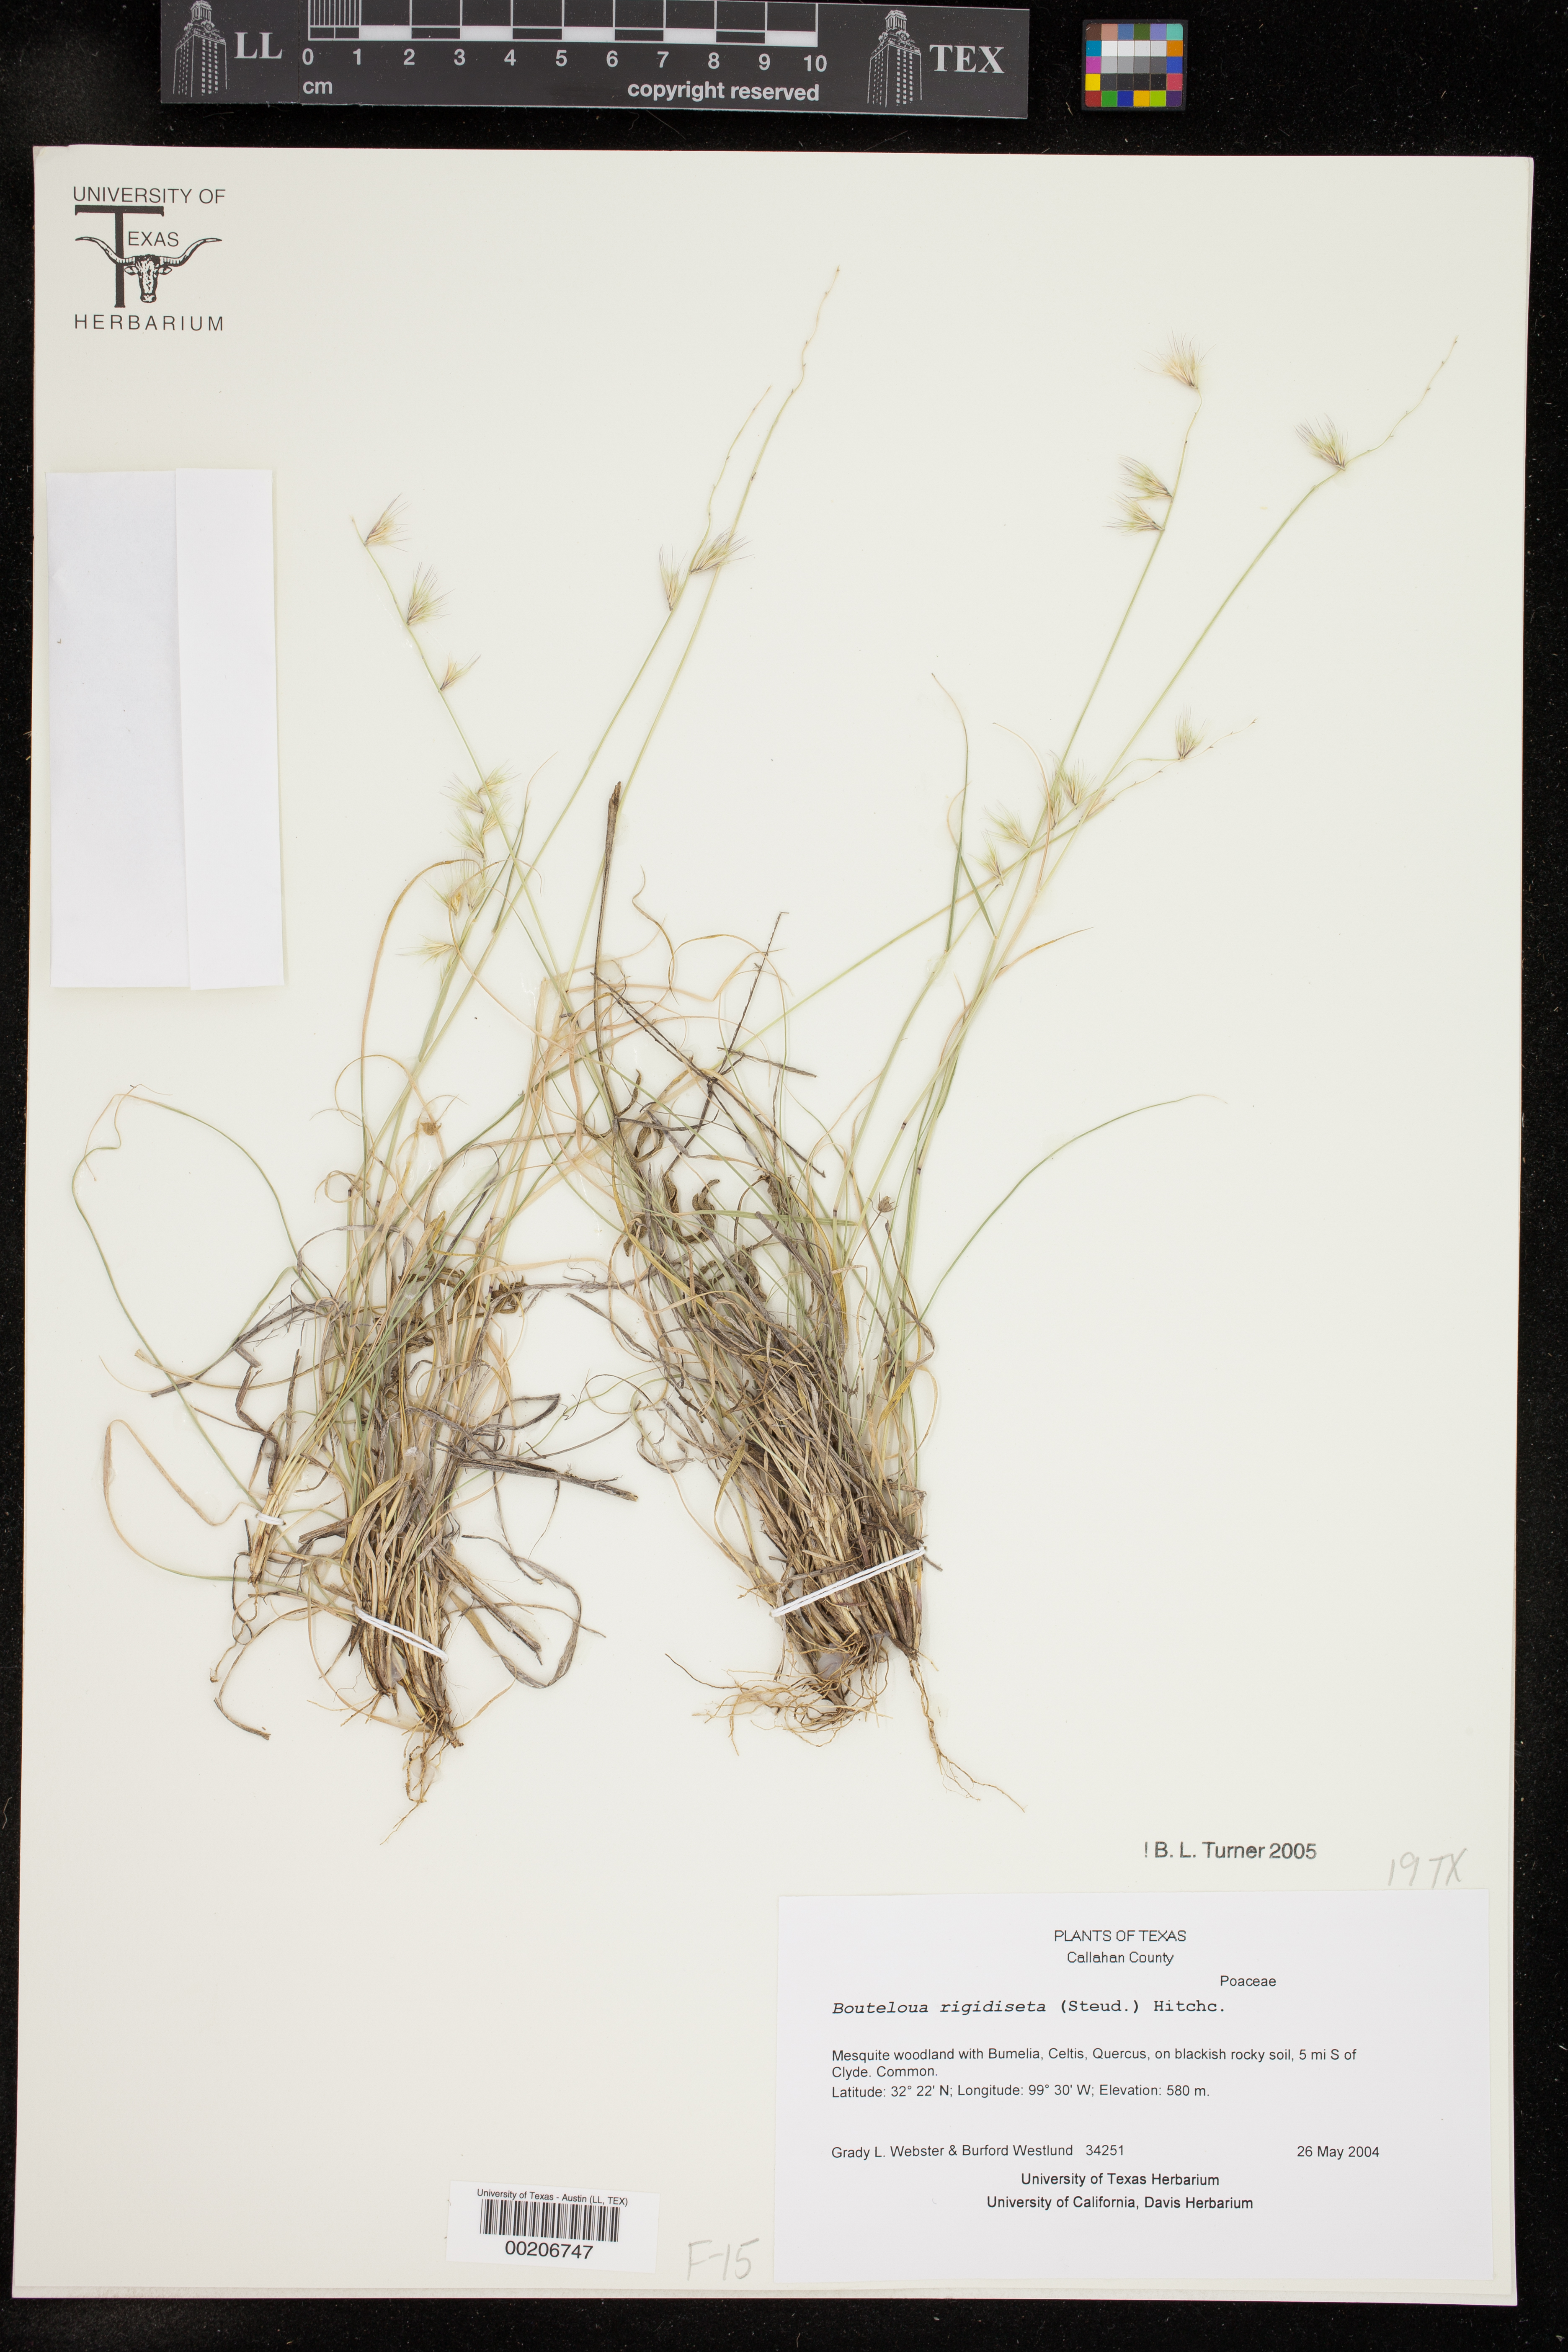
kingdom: Plantae
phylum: Tracheophyta
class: Liliopsida
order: Poales
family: Poaceae
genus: Bouteloua
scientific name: Bouteloua rigidiseta
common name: Texas grama
